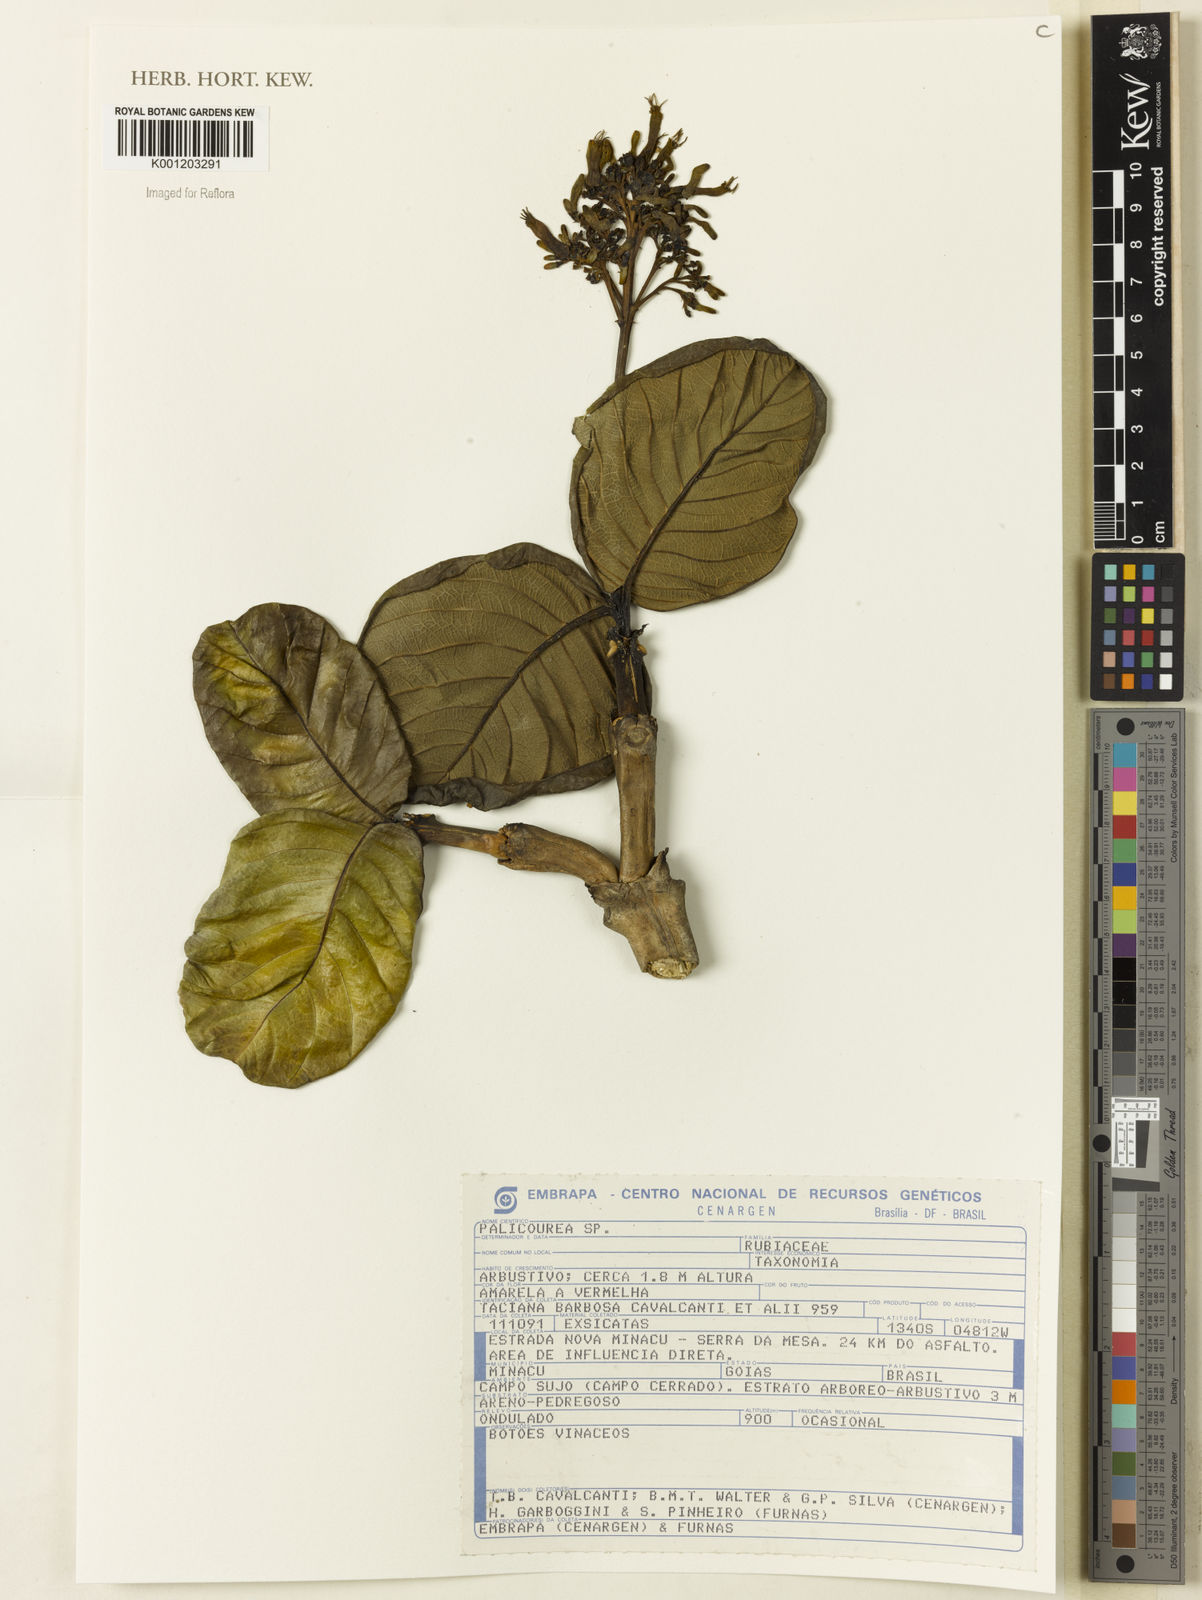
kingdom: Plantae
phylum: Tracheophyta
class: Magnoliopsida
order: Gentianales
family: Rubiaceae
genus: Palicourea
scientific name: Palicourea
